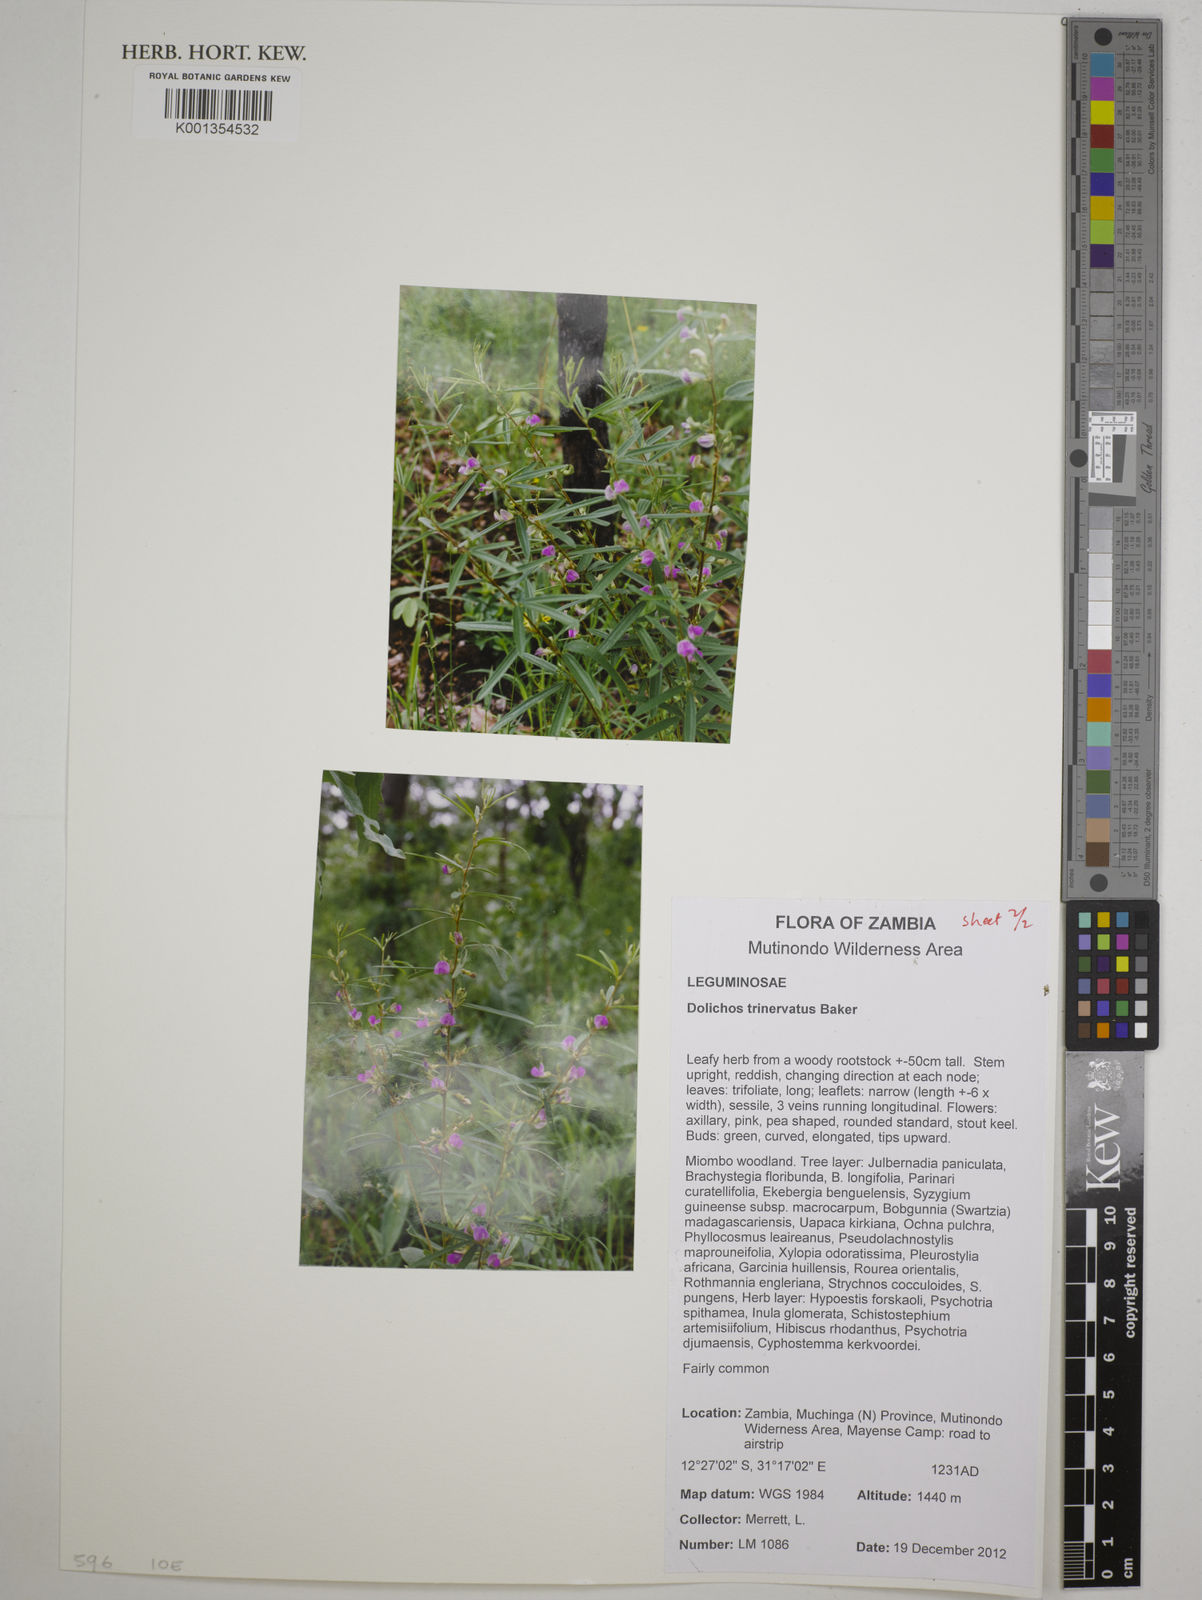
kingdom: Plantae
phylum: Tracheophyta
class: Magnoliopsida
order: Fabales
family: Fabaceae
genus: Dolichos
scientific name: Dolichos trinervatus
